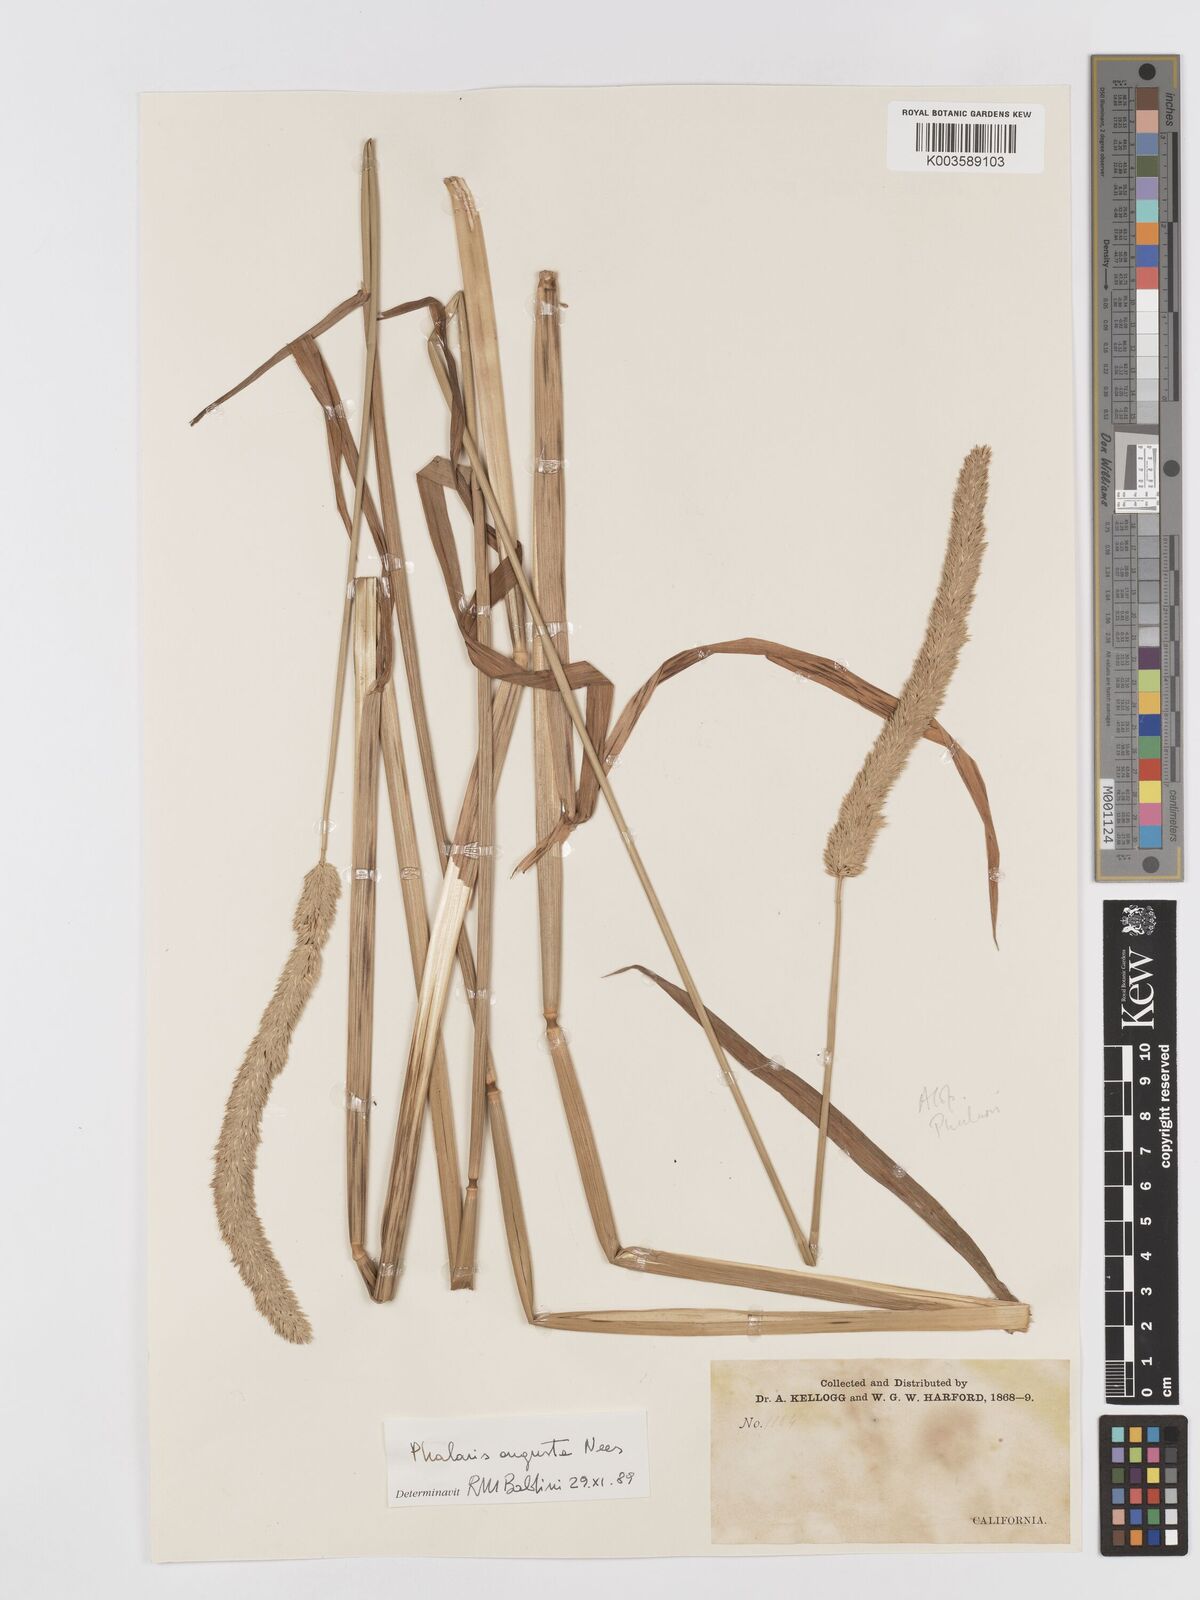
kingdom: Plantae
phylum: Tracheophyta
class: Liliopsida
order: Poales
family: Poaceae
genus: Phalaris
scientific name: Phalaris
